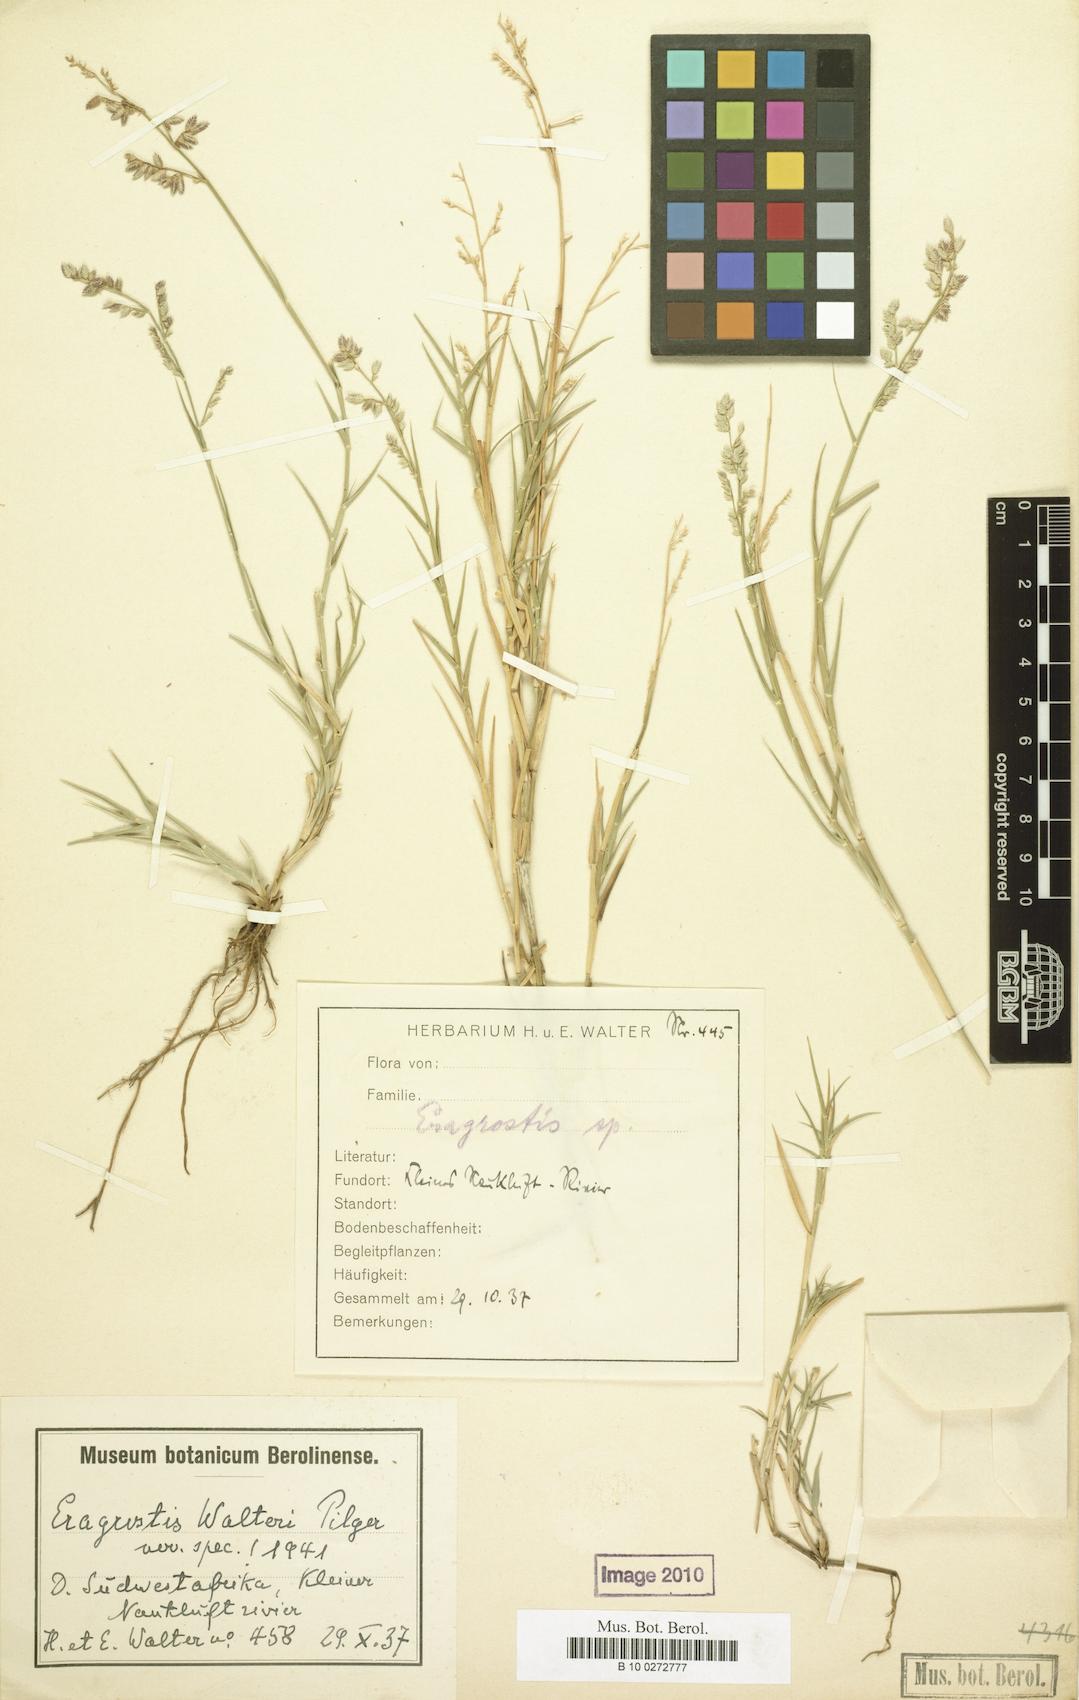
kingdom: Plantae
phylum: Tracheophyta
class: Liliopsida
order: Poales
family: Poaceae
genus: Pratochloa
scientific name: Pratochloa walteri
